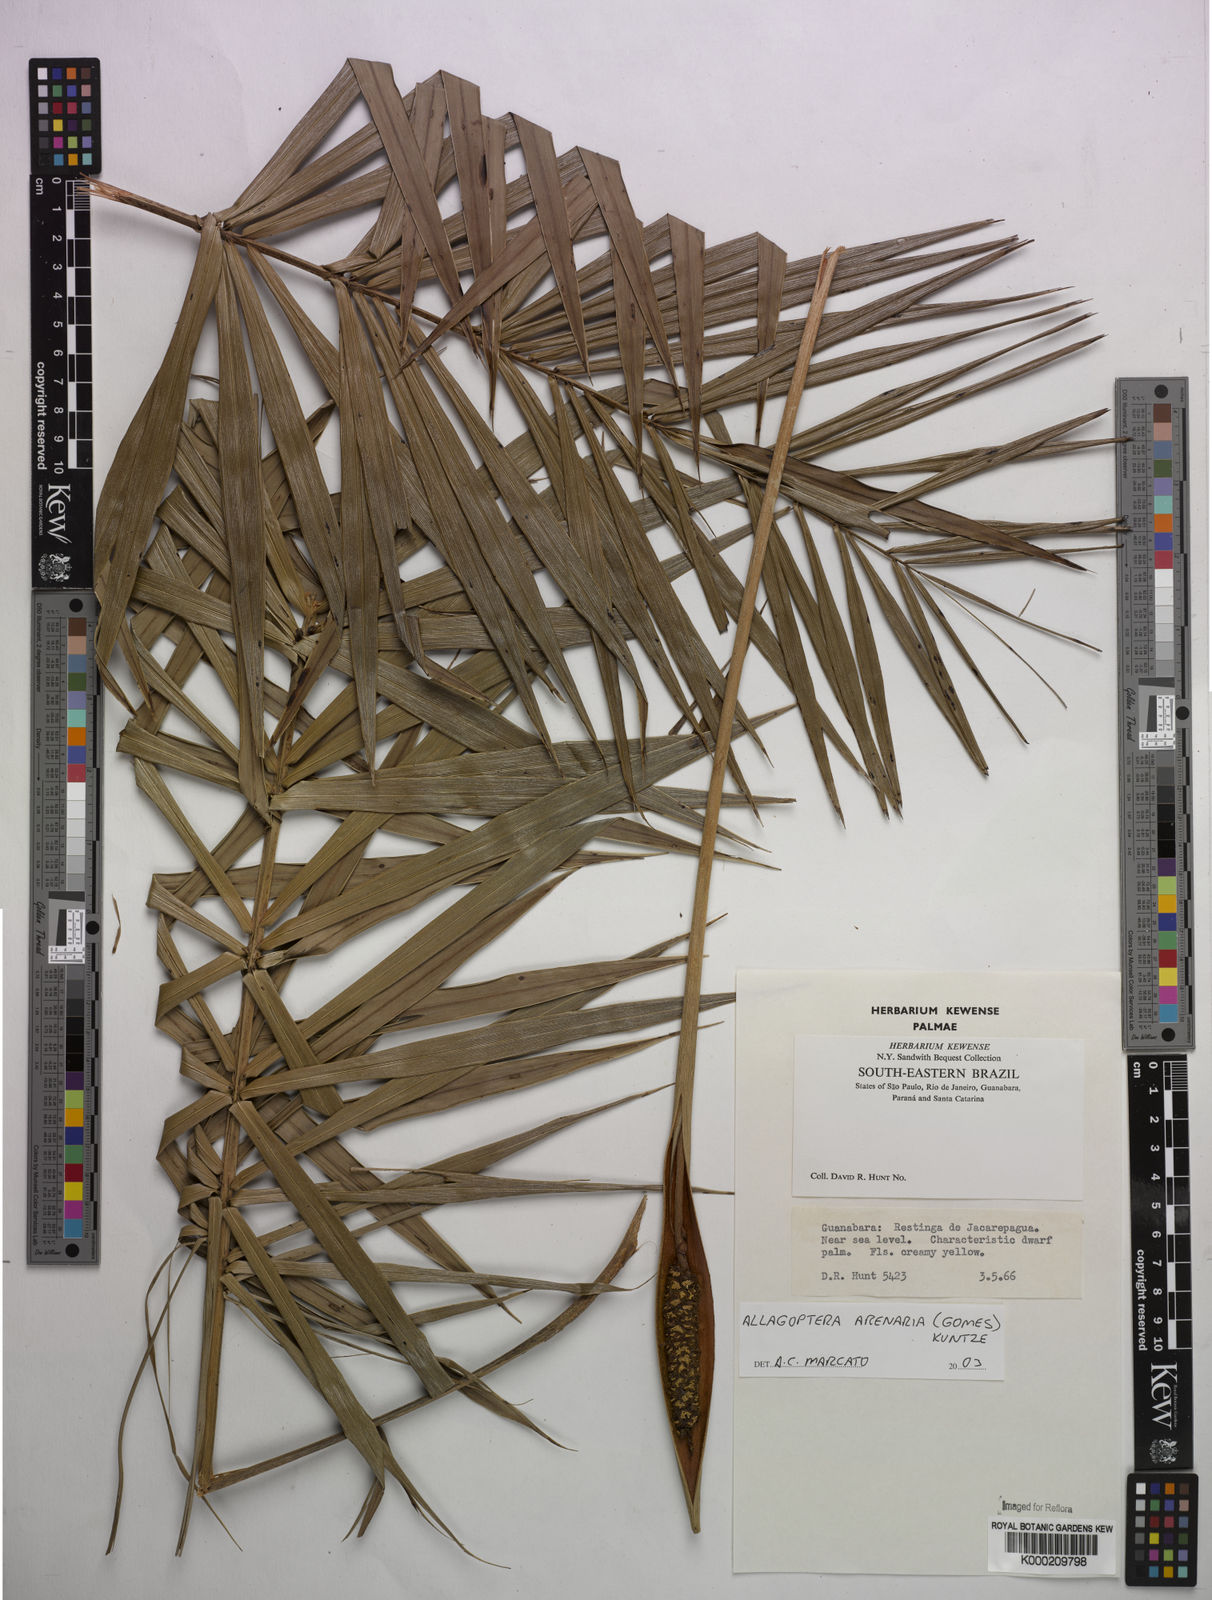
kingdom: Plantae
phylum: Tracheophyta
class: Liliopsida
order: Arecales
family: Arecaceae
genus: Allagoptera
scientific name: Allagoptera arenaria
